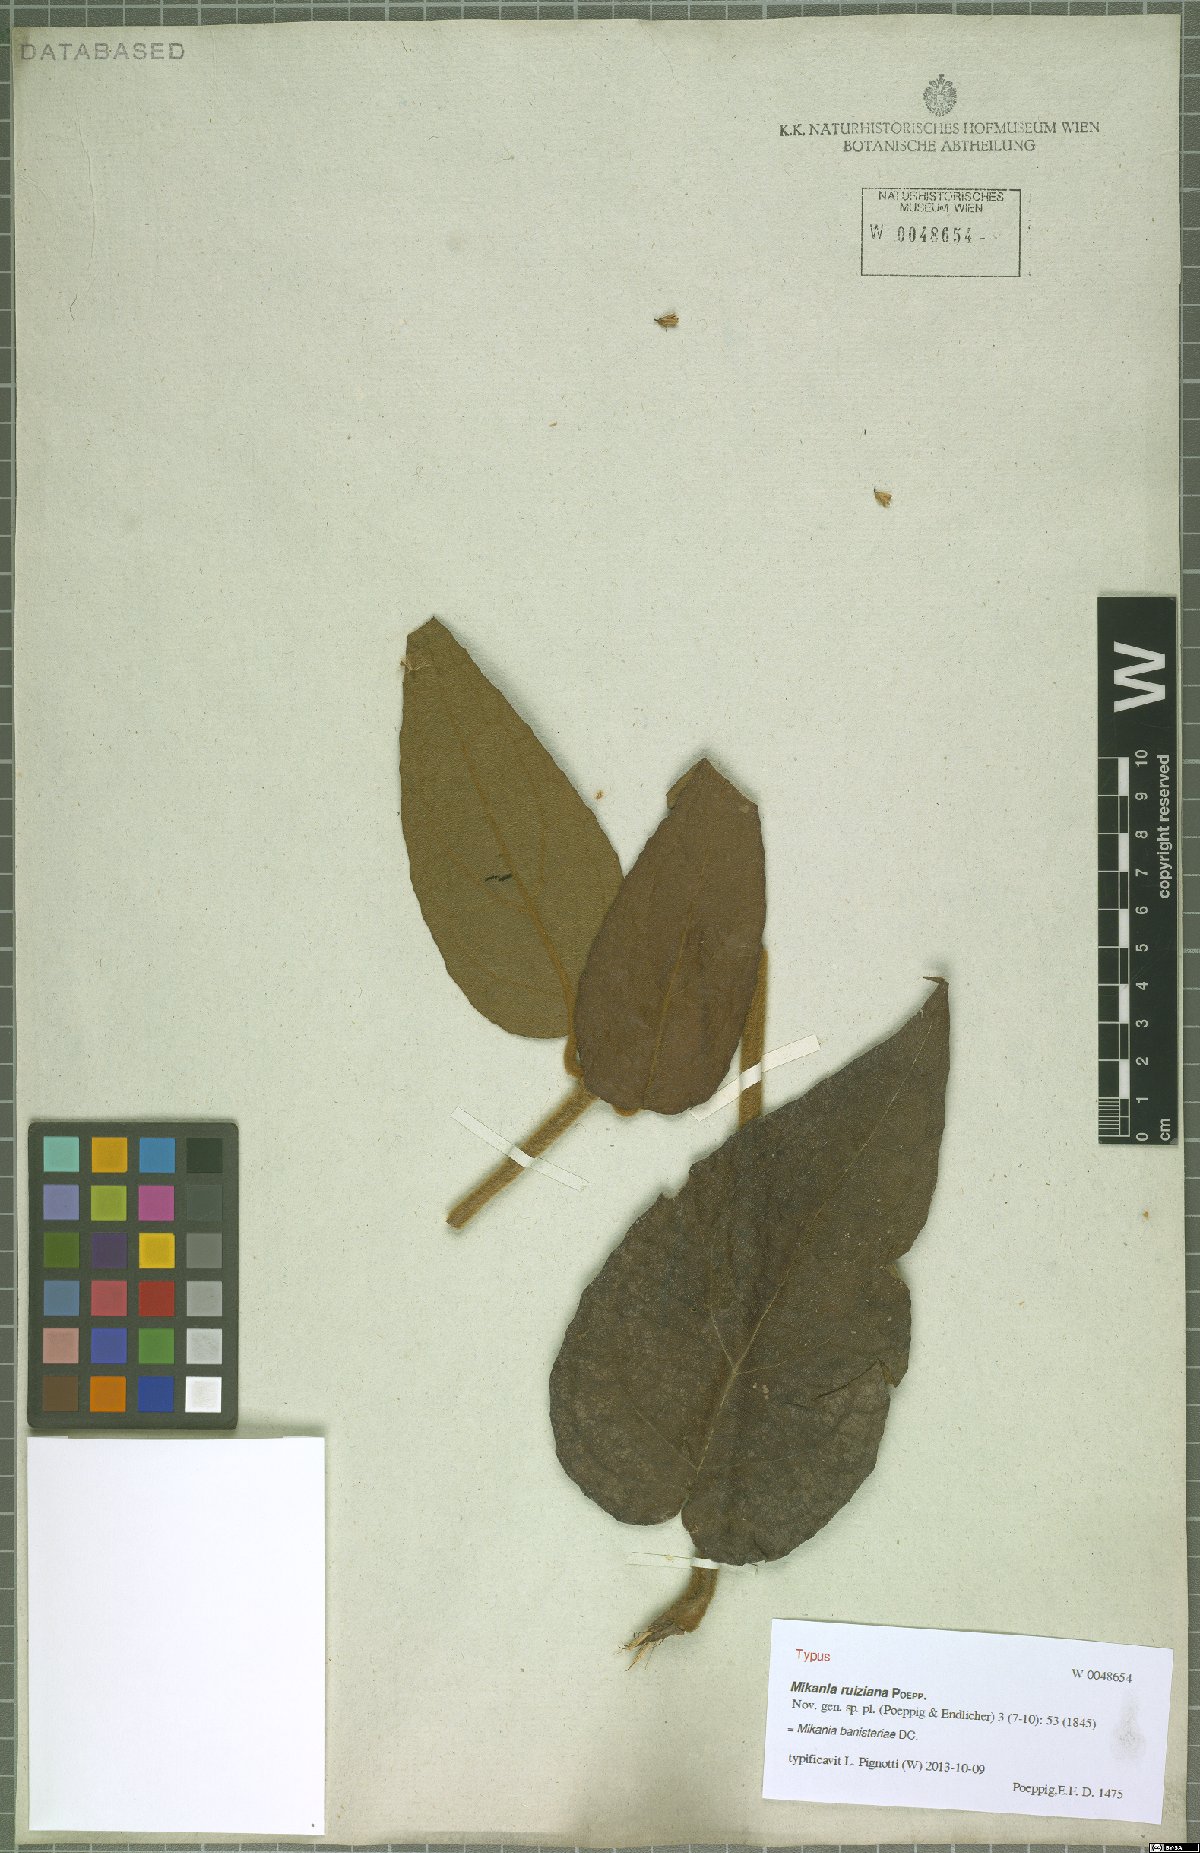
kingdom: Plantae
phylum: Tracheophyta
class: Magnoliopsida
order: Asterales
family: Asteraceae
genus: Mikania
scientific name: Mikania banisteriae
